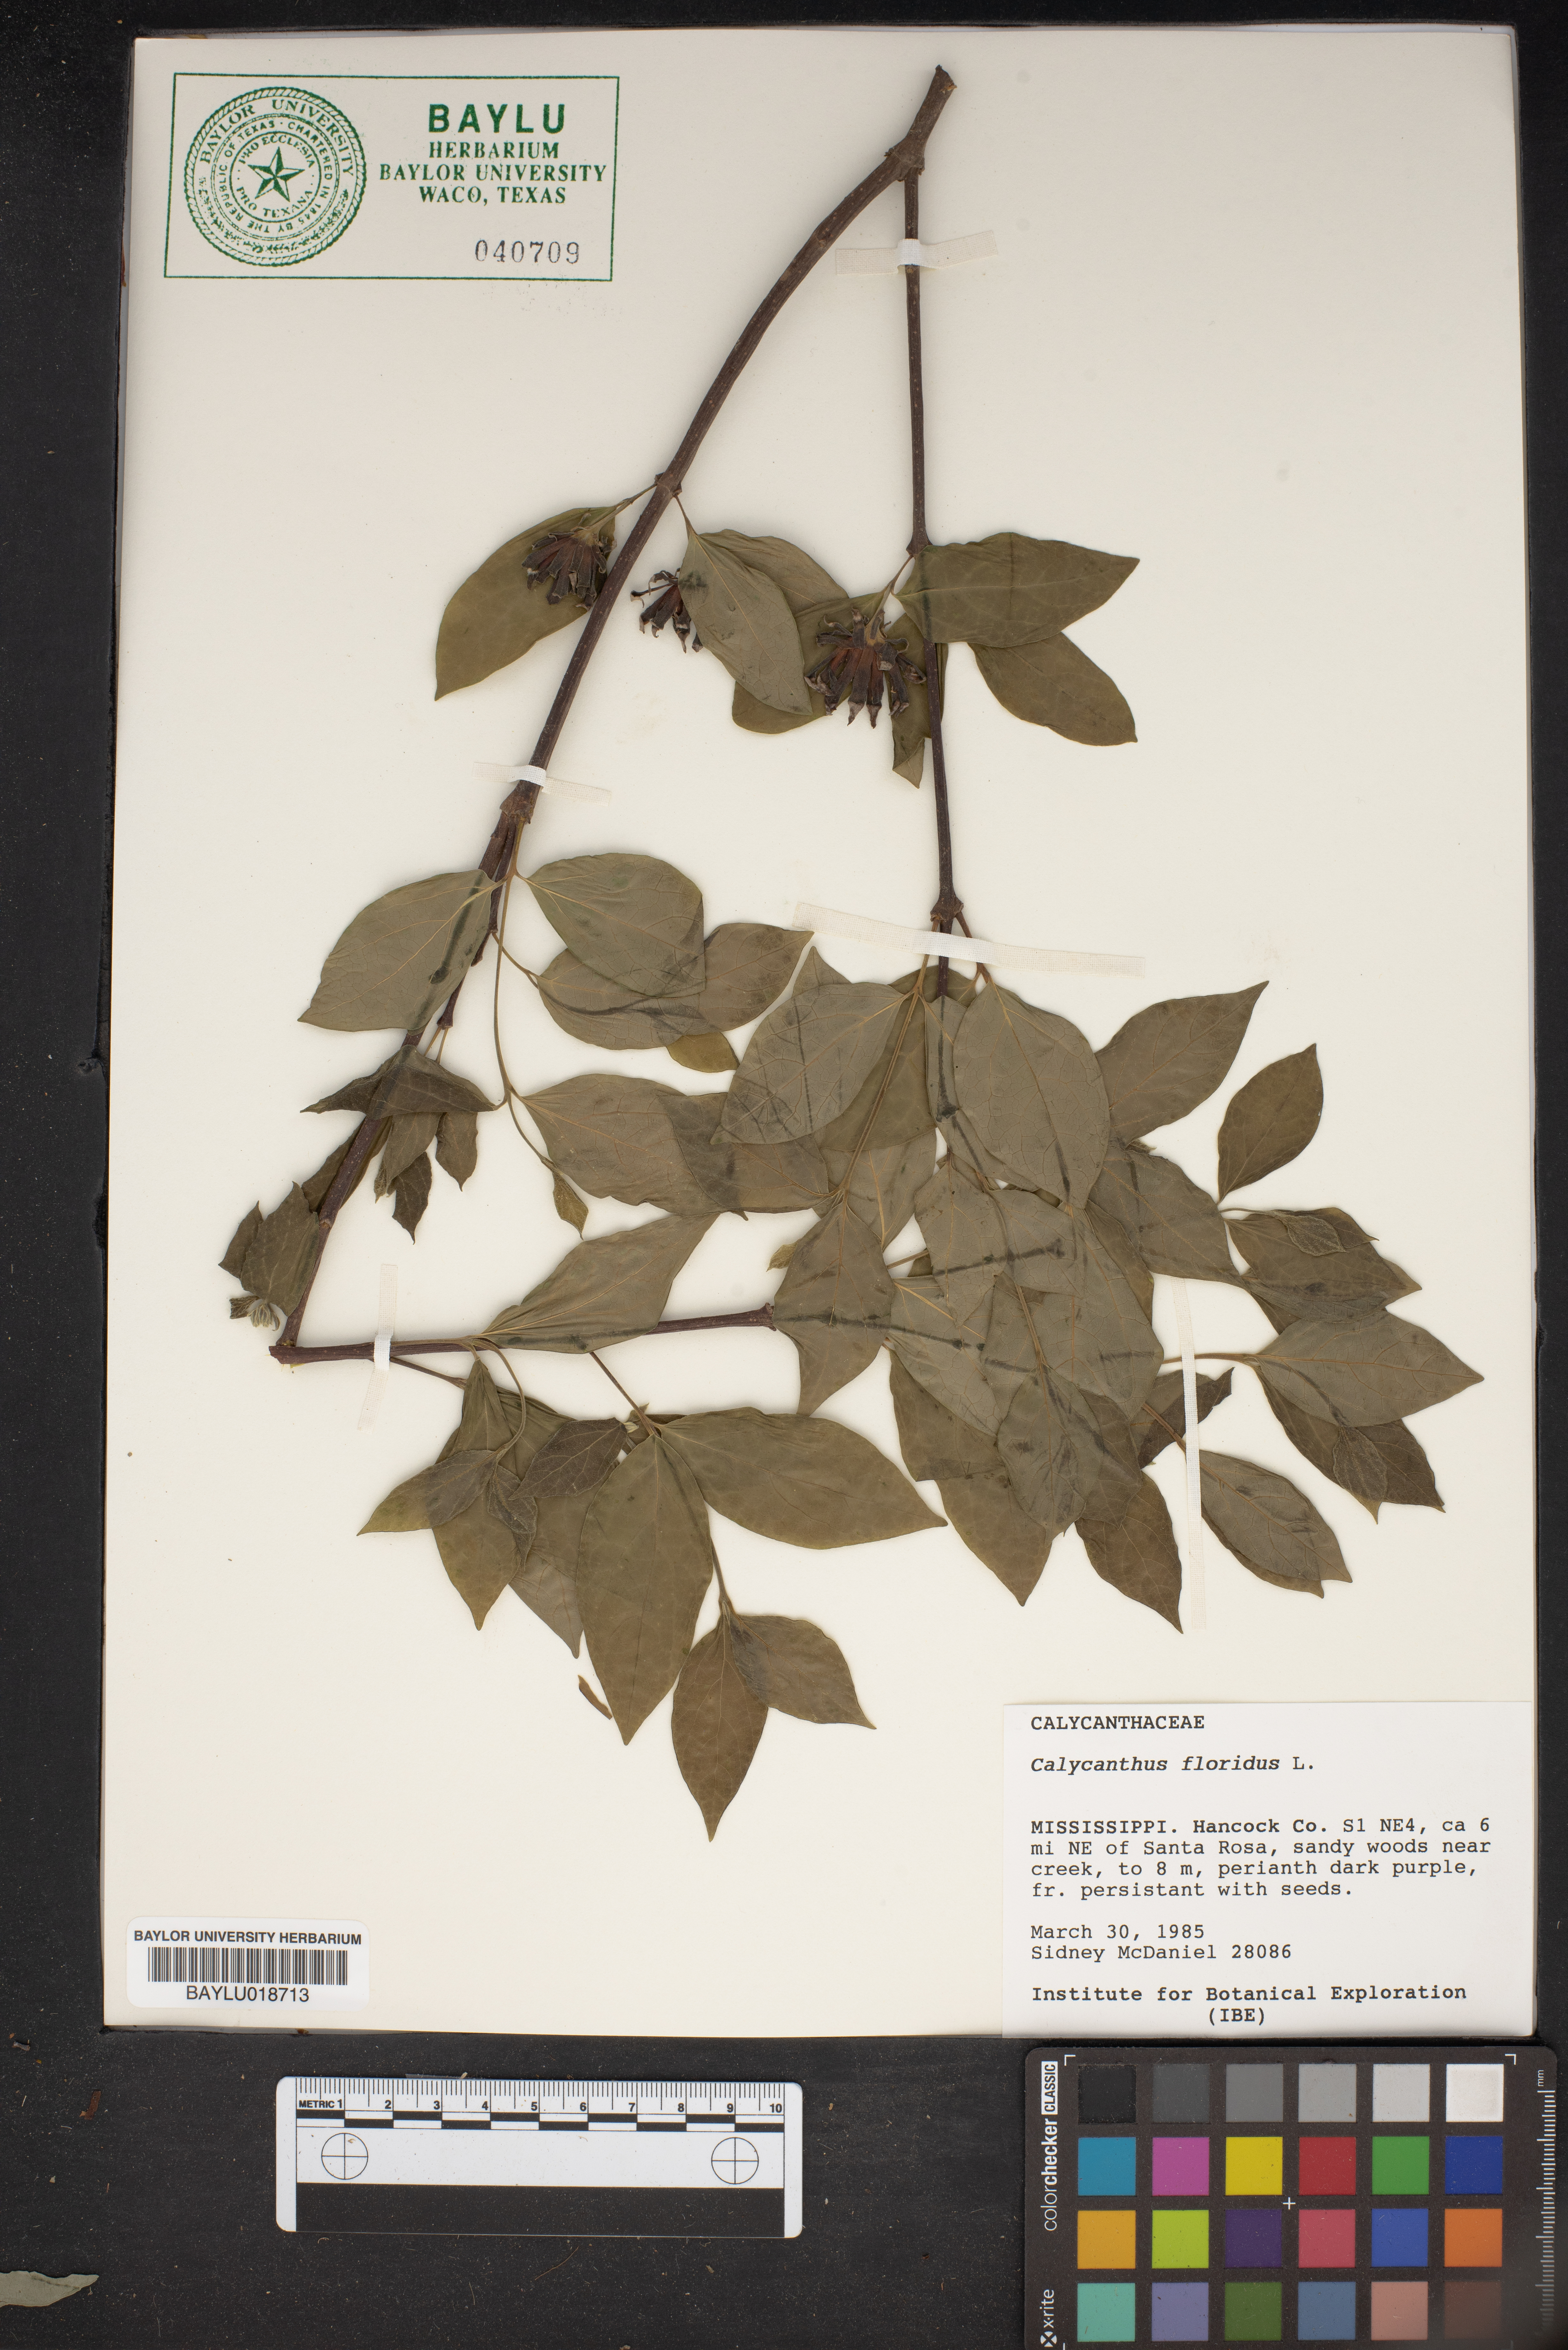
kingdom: Plantae
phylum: Tracheophyta
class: Magnoliopsida
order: Laurales
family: Calycanthaceae
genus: Calycanthus
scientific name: Calycanthus floridus
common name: Carolina-allspice
